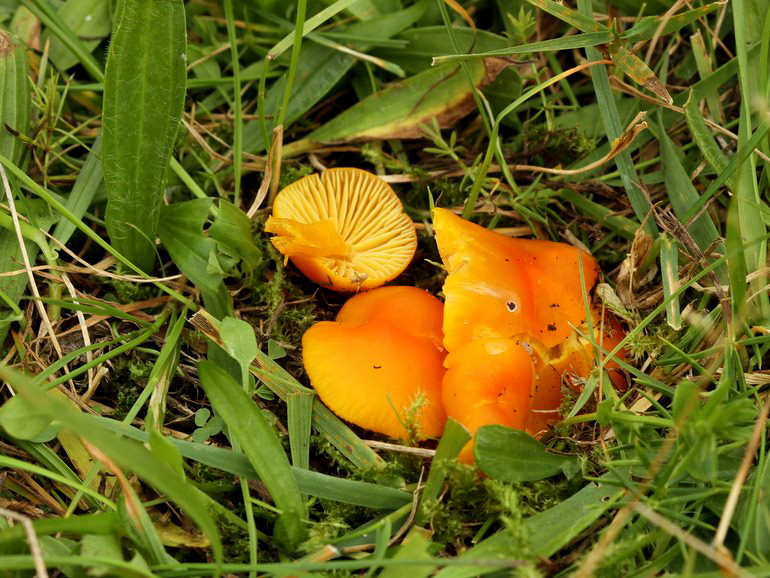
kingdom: Fungi
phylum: Basidiomycota
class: Agaricomycetes
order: Agaricales
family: Hygrophoraceae
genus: Hygrocybe
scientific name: Hygrocybe ceracea
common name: voksgul vokshat
